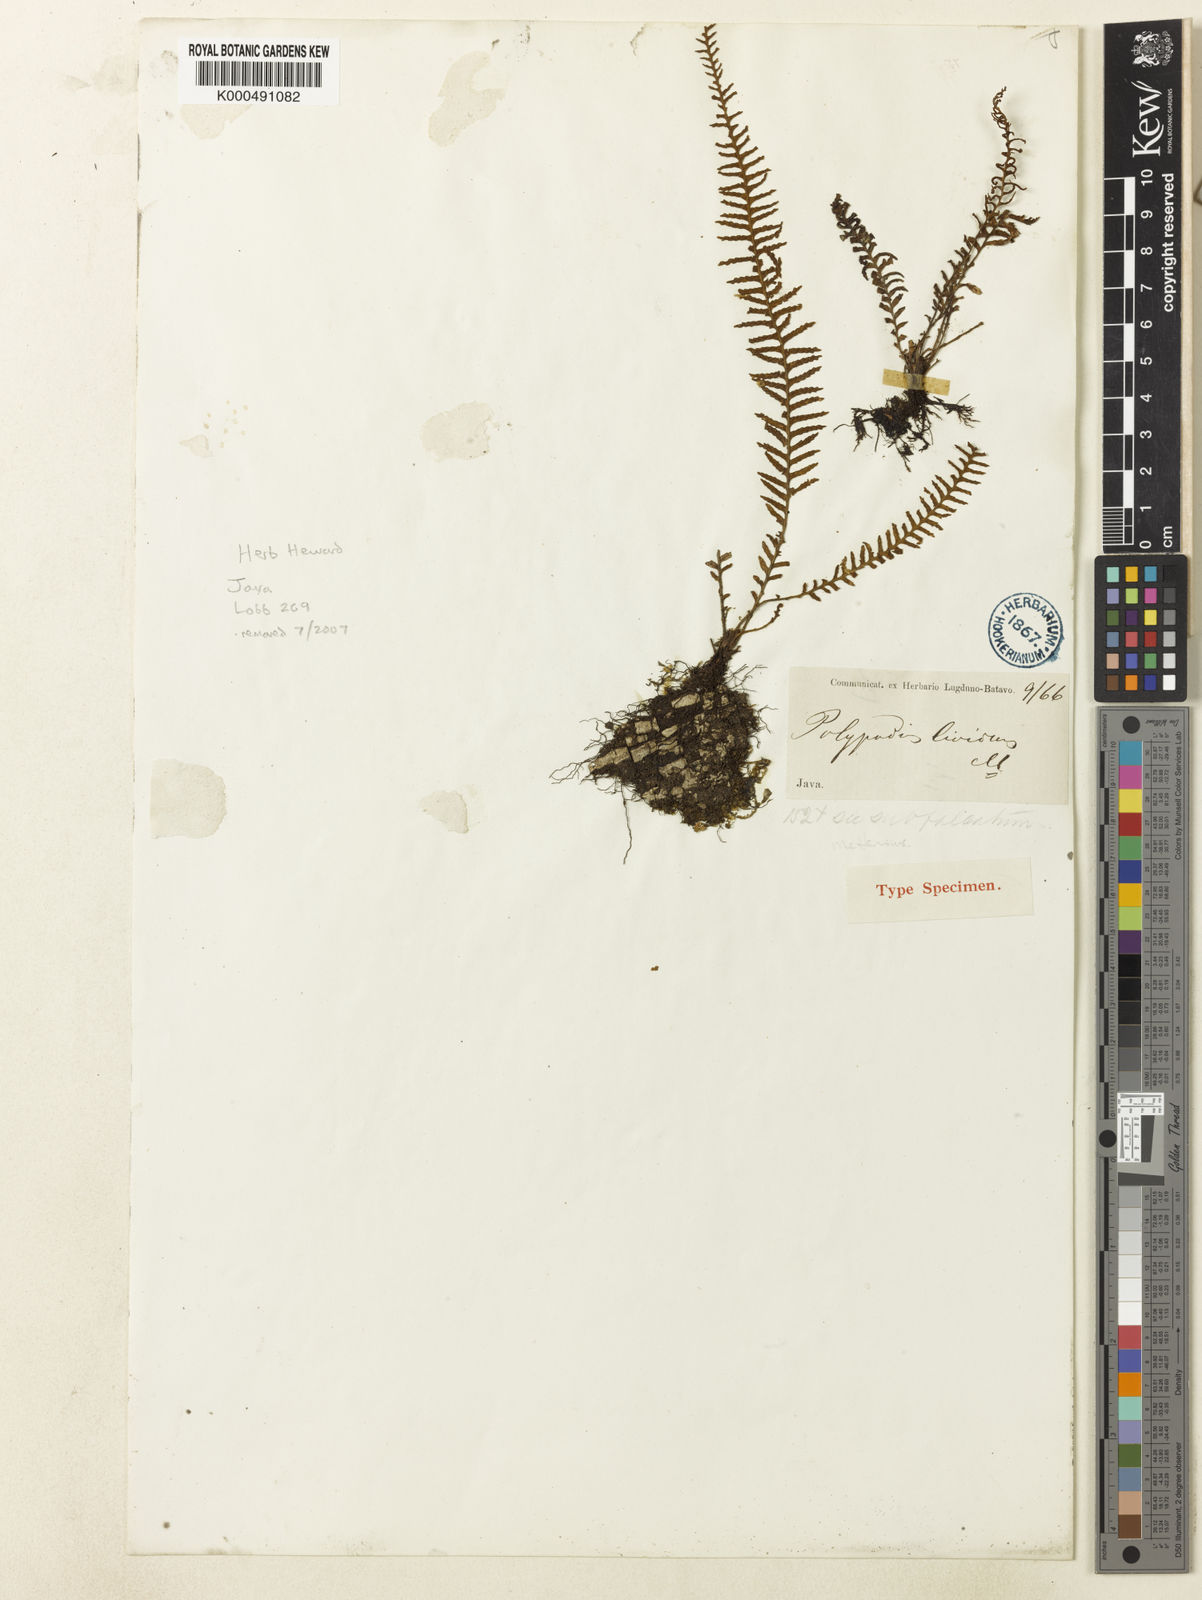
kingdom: Plantae
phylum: Tracheophyta
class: Polypodiopsida
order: Polypodiales
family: Polypodiaceae
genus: Tomophyllum
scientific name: Tomophyllum subfalcatum
